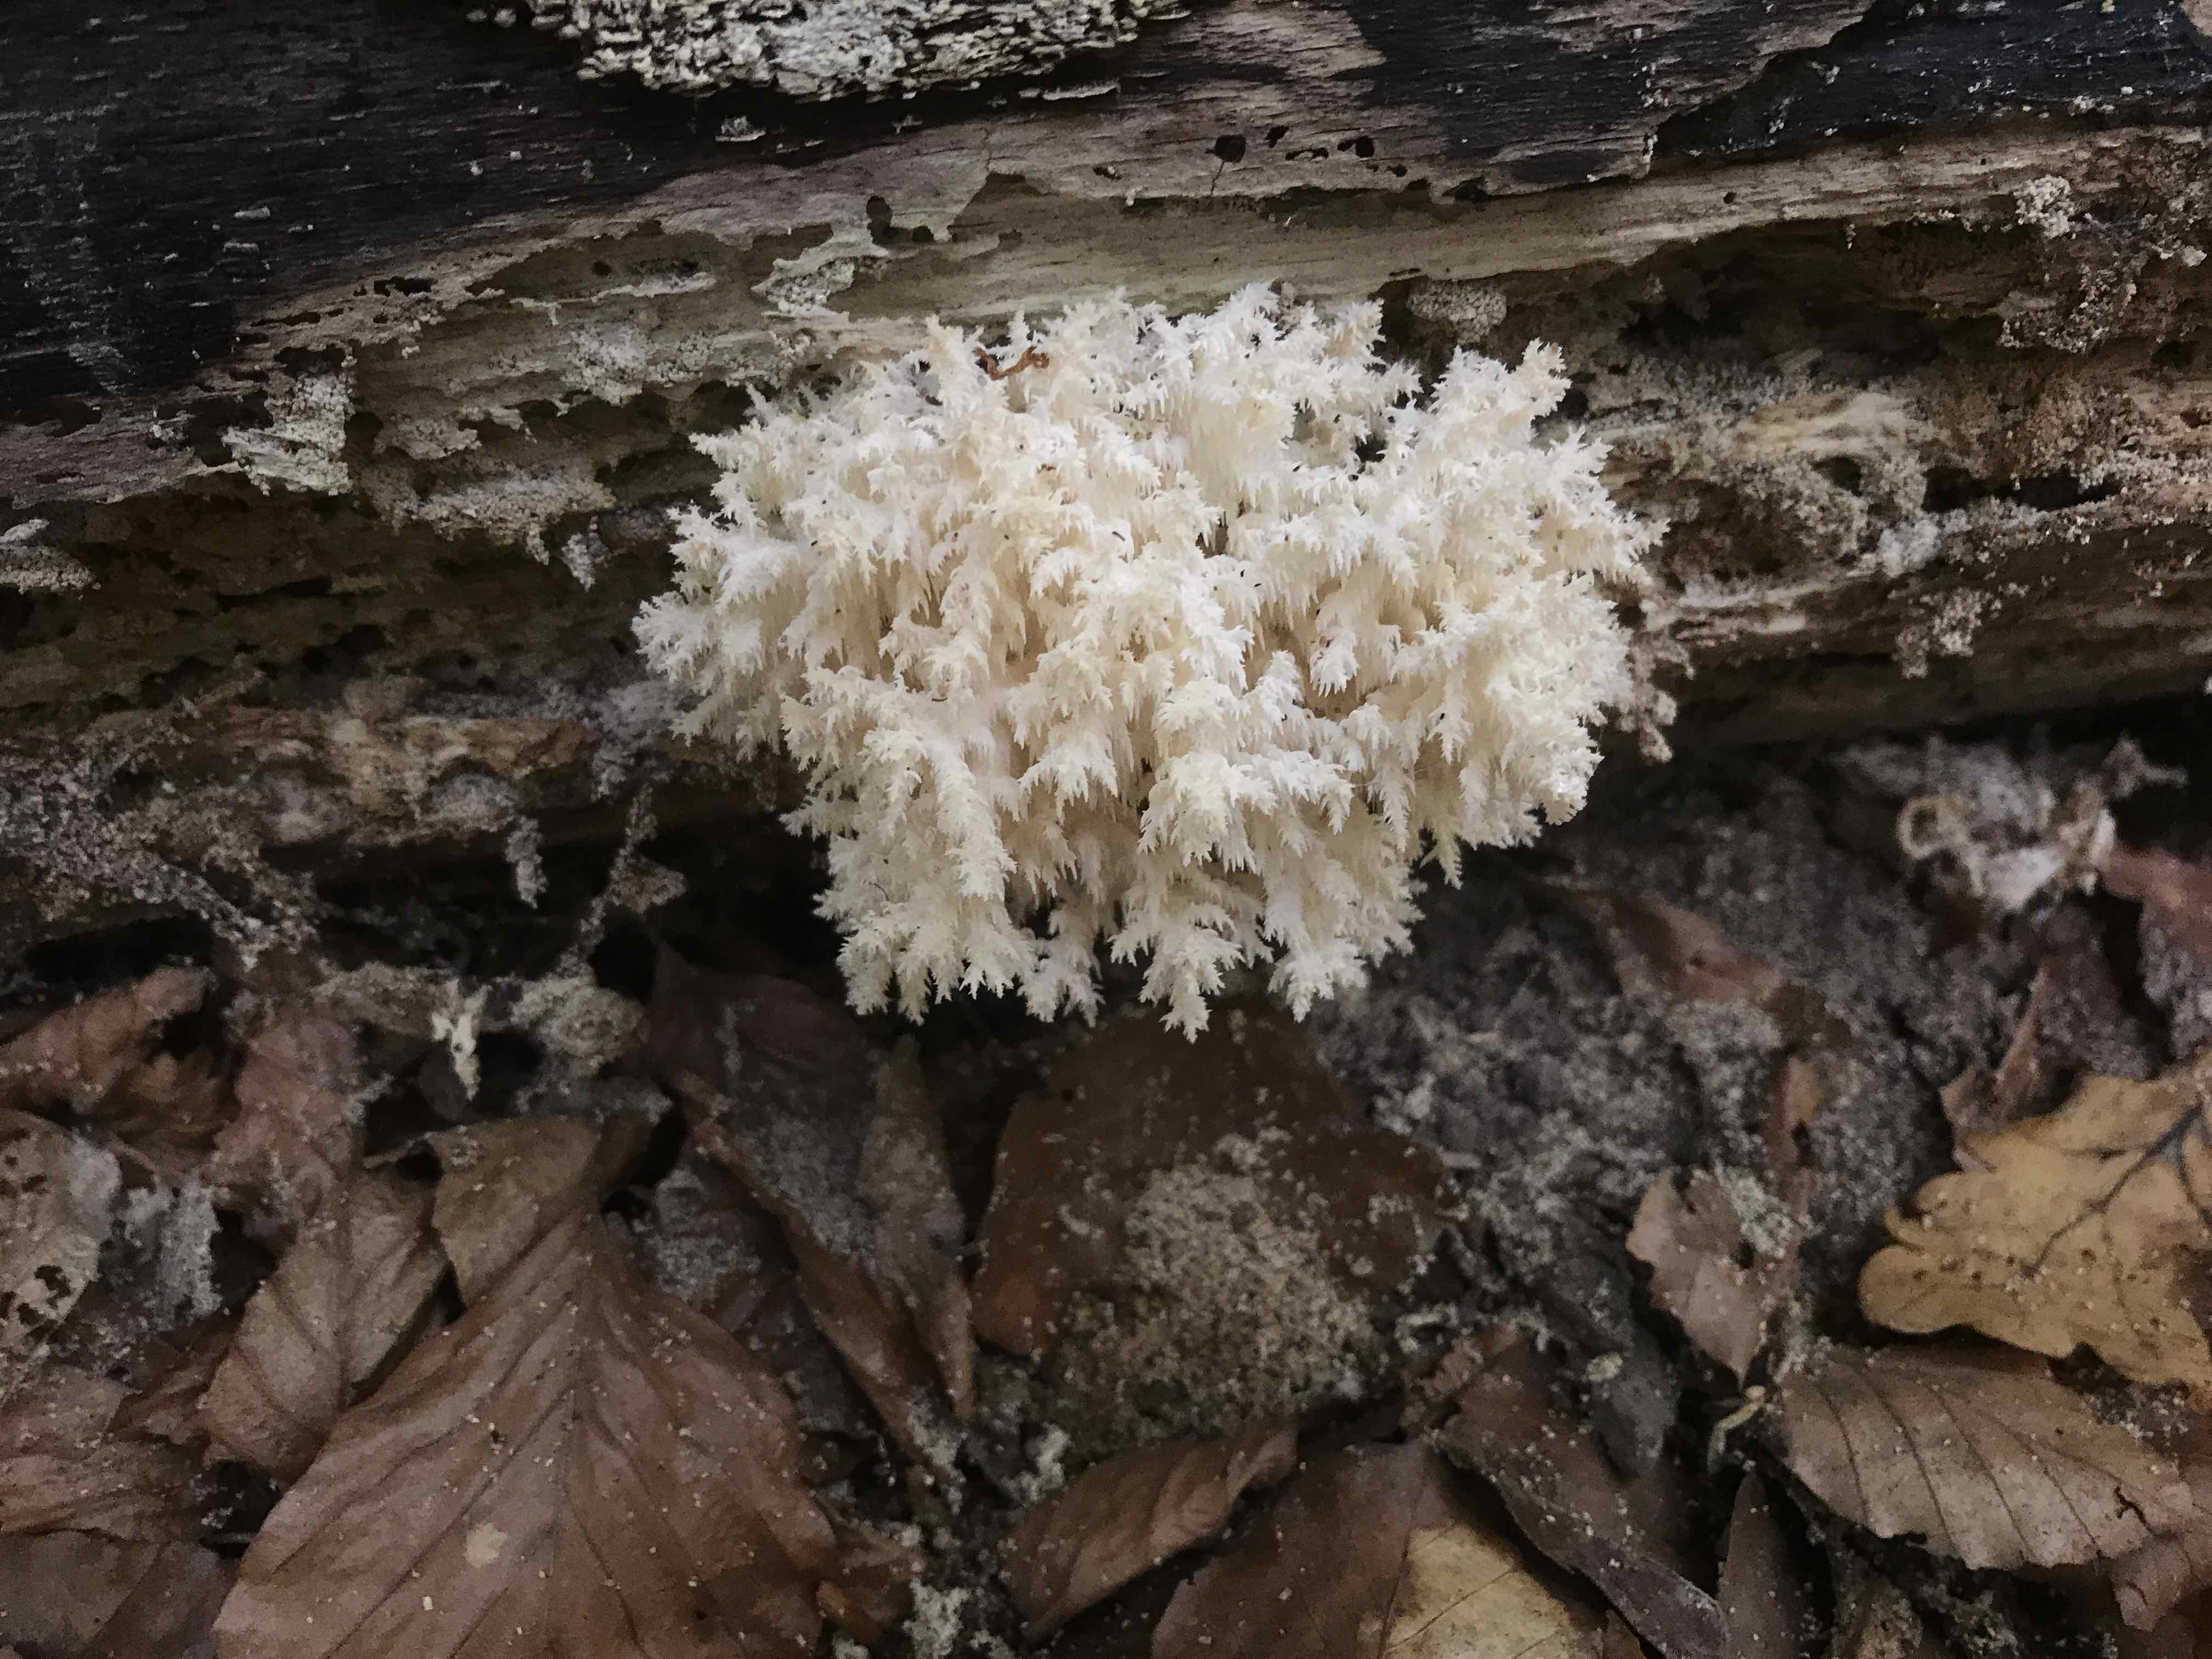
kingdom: Fungi
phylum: Basidiomycota
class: Agaricomycetes
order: Russulales
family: Hericiaceae
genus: Hericium
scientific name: Hericium coralloides
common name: koralpigsvamp
